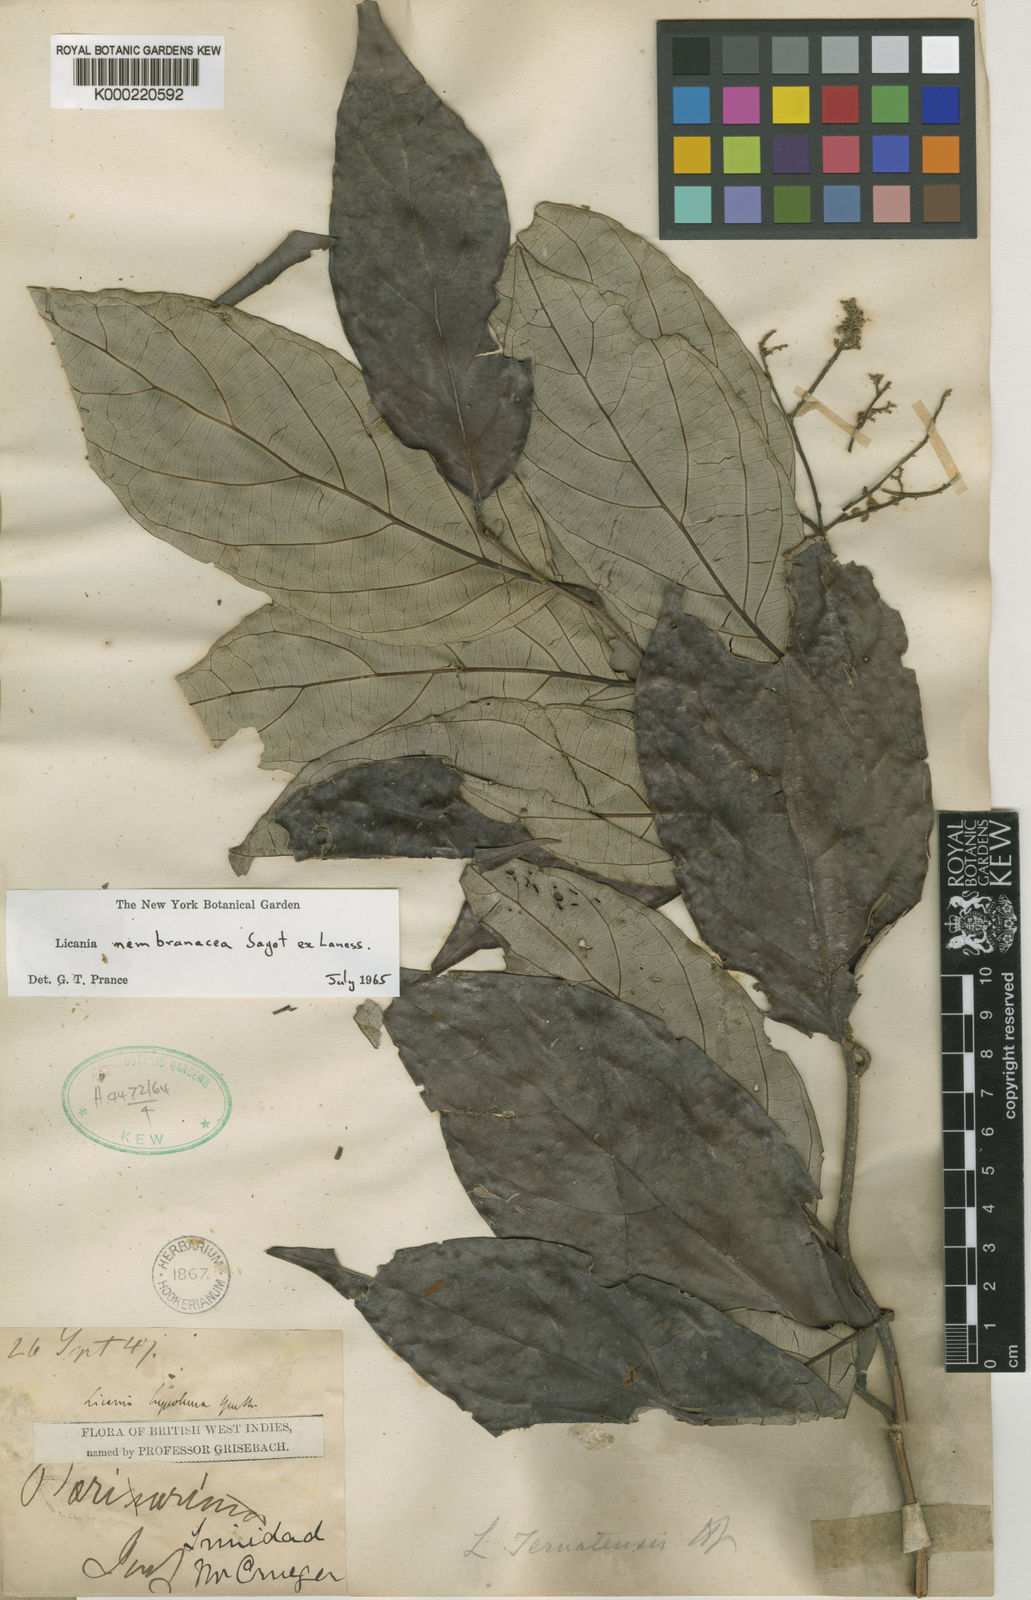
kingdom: Plantae
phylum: Tracheophyta
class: Magnoliopsida
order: Malpighiales
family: Chrysobalanaceae
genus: Licania
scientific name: Licania membranacea
